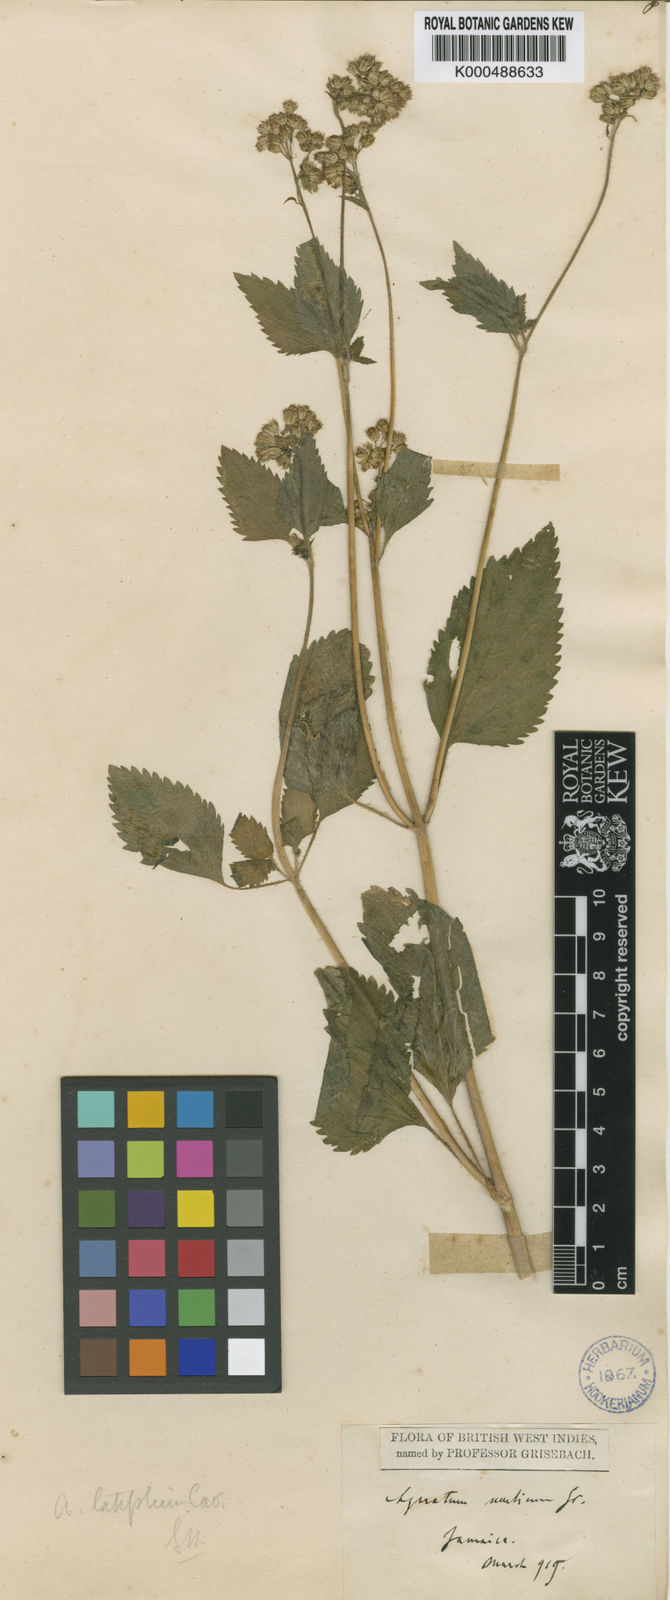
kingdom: Plantae
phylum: Tracheophyta
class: Magnoliopsida
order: Asterales
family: Asteraceae
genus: Ageratum
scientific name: Ageratum oerstedii
